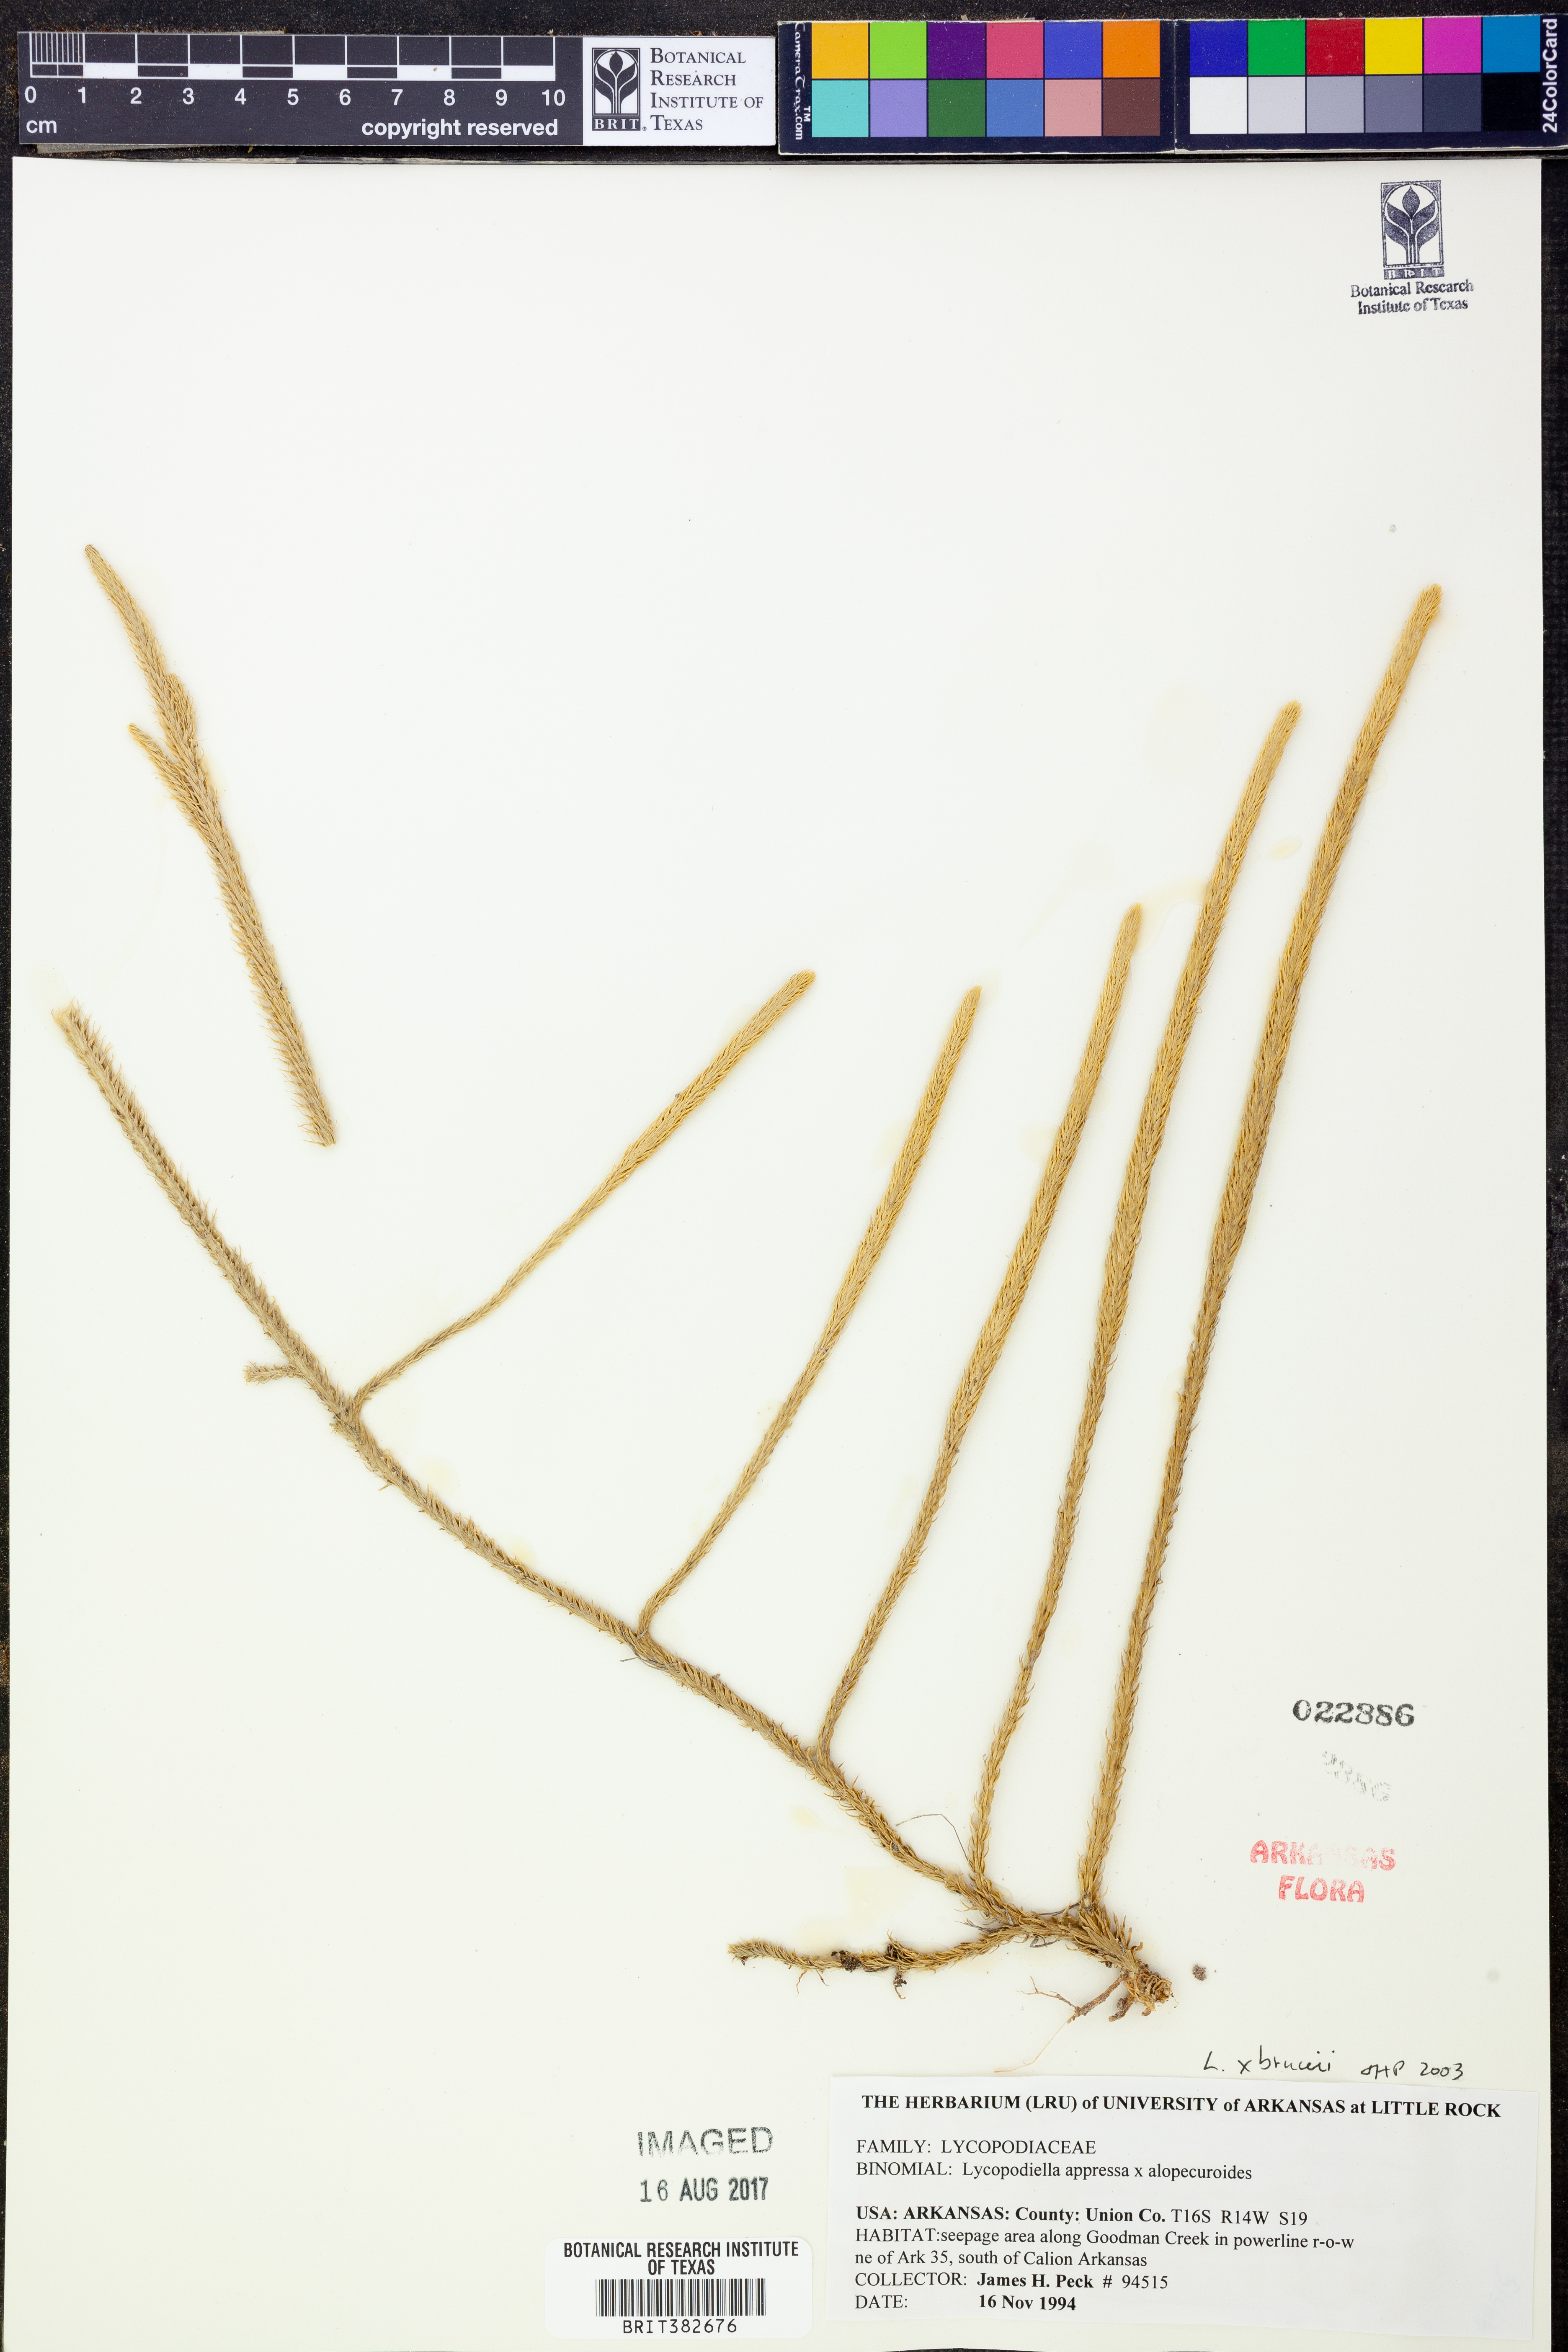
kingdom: Plantae
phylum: Tracheophyta
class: Lycopodiopsida
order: Lycopodiales
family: Lycopodiaceae
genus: Lycopodiella
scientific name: Lycopodiella
